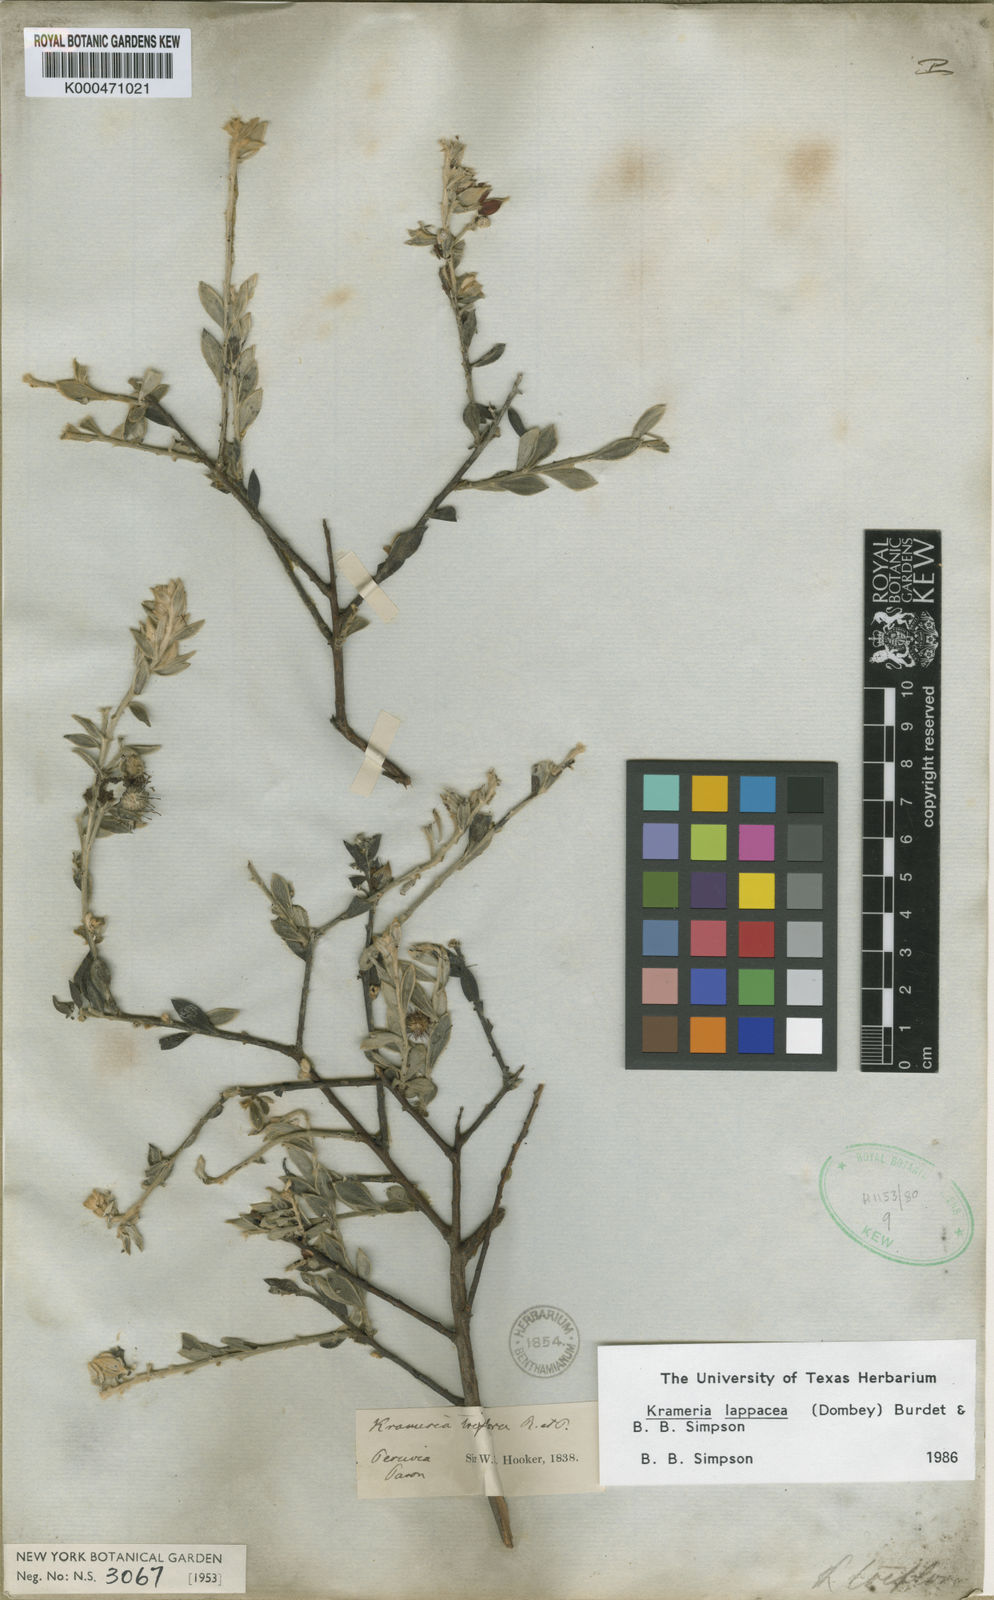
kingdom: Plantae
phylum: Tracheophyta
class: Magnoliopsida
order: Zygophyllales
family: Krameriaceae
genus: Krameria
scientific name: Krameria lappacea
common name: Rhatany
